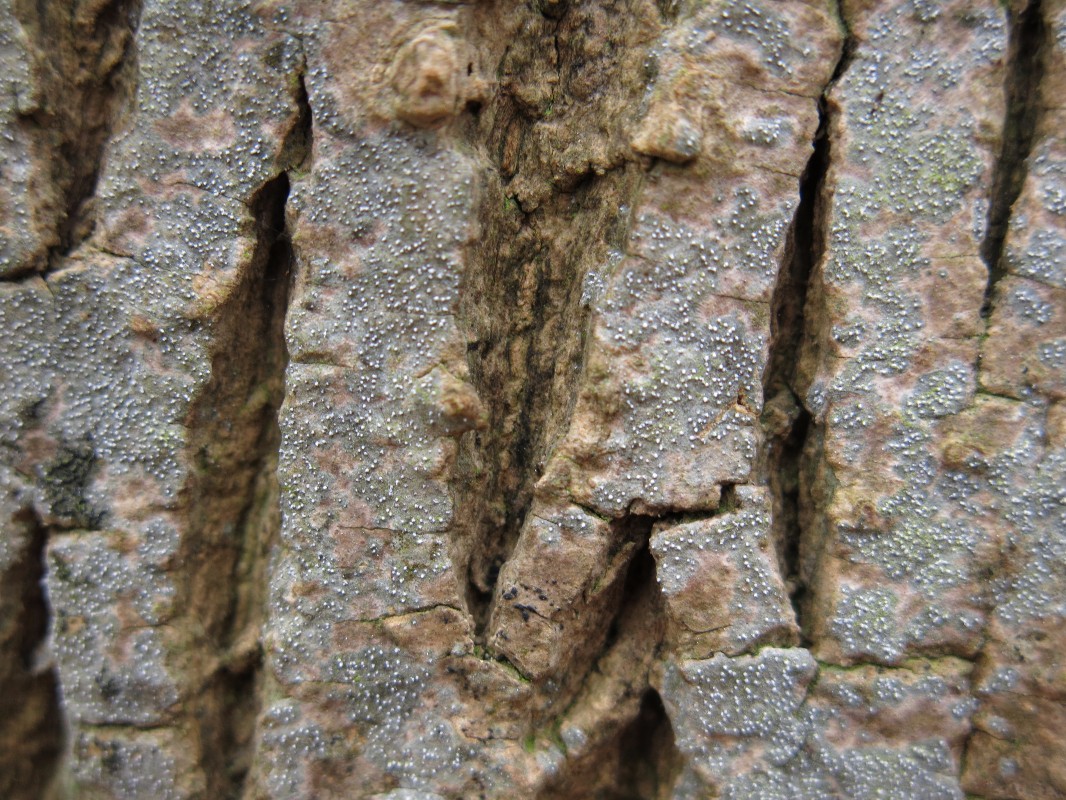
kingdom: Fungi
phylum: Ascomycota
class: Arthoniomycetes
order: Arthoniales
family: Opegraphaceae
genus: Opegrapha
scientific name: Opegrapha vermicellifera
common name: nåleprikket bogstavlav
